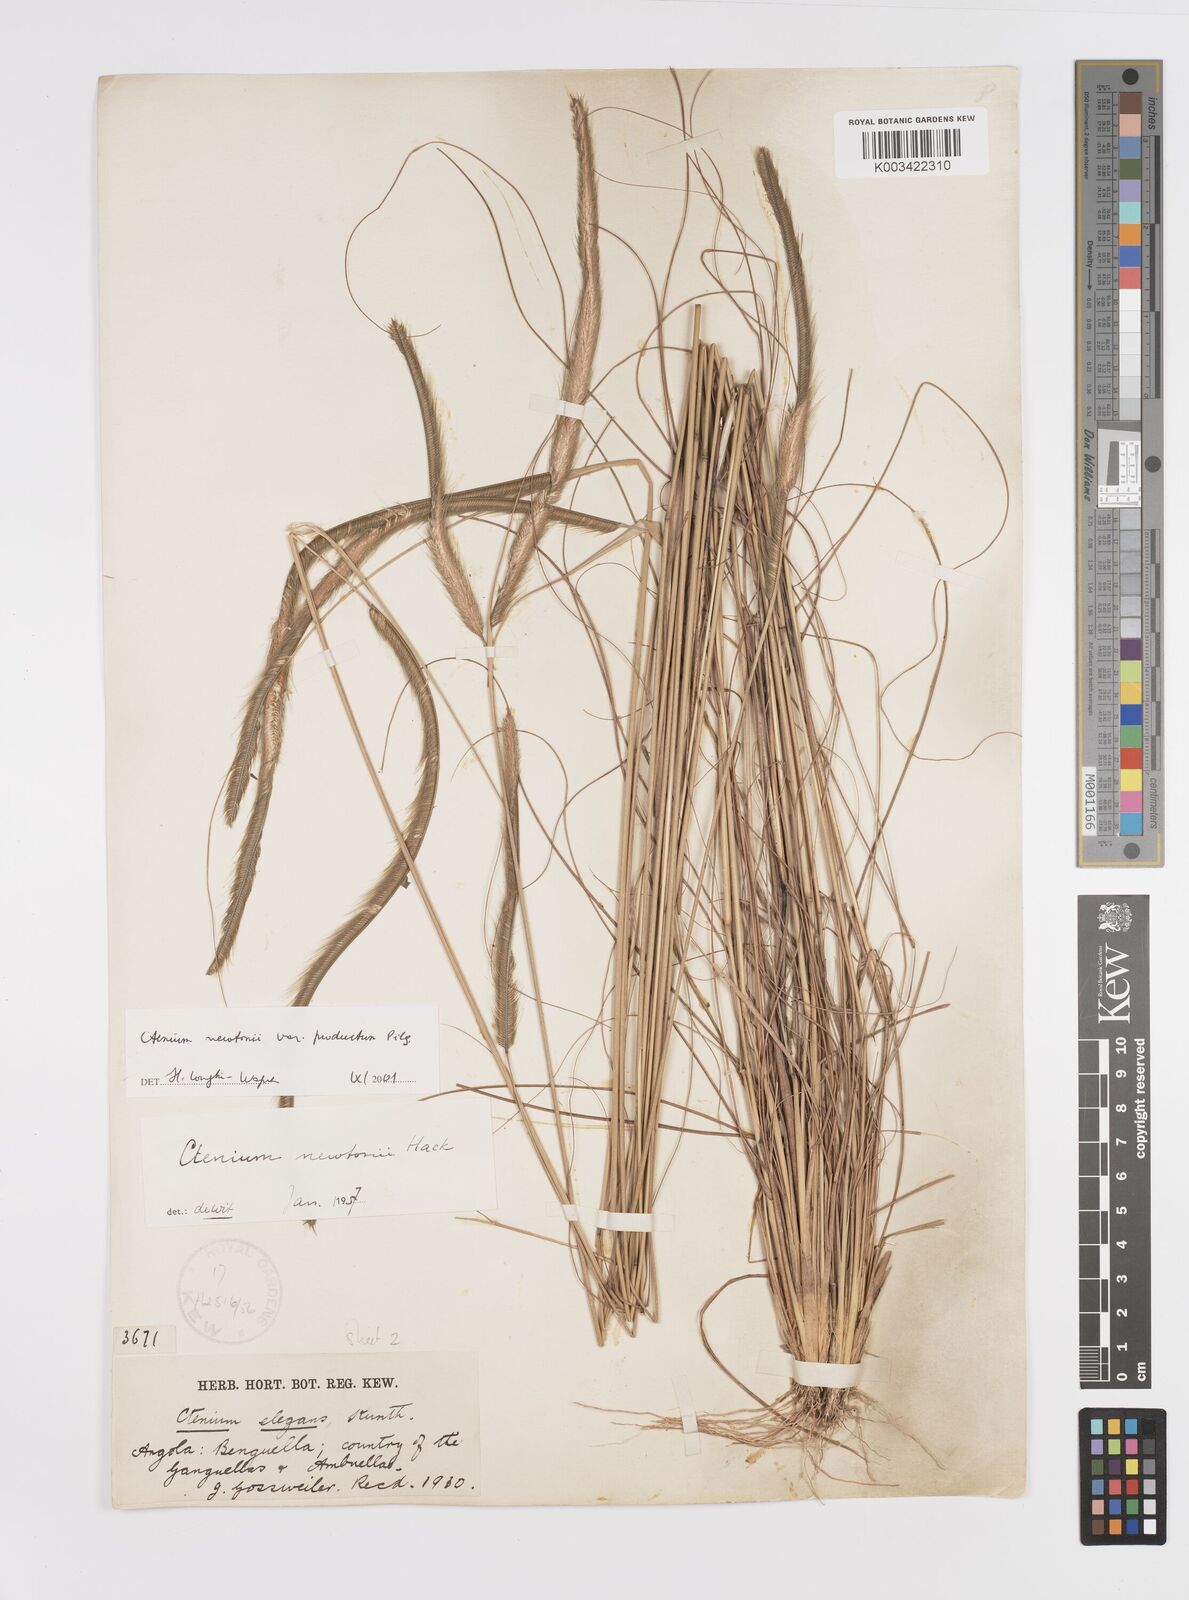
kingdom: Plantae
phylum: Tracheophyta
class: Liliopsida
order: Poales
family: Poaceae
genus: Ctenium
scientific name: Ctenium newtonii
